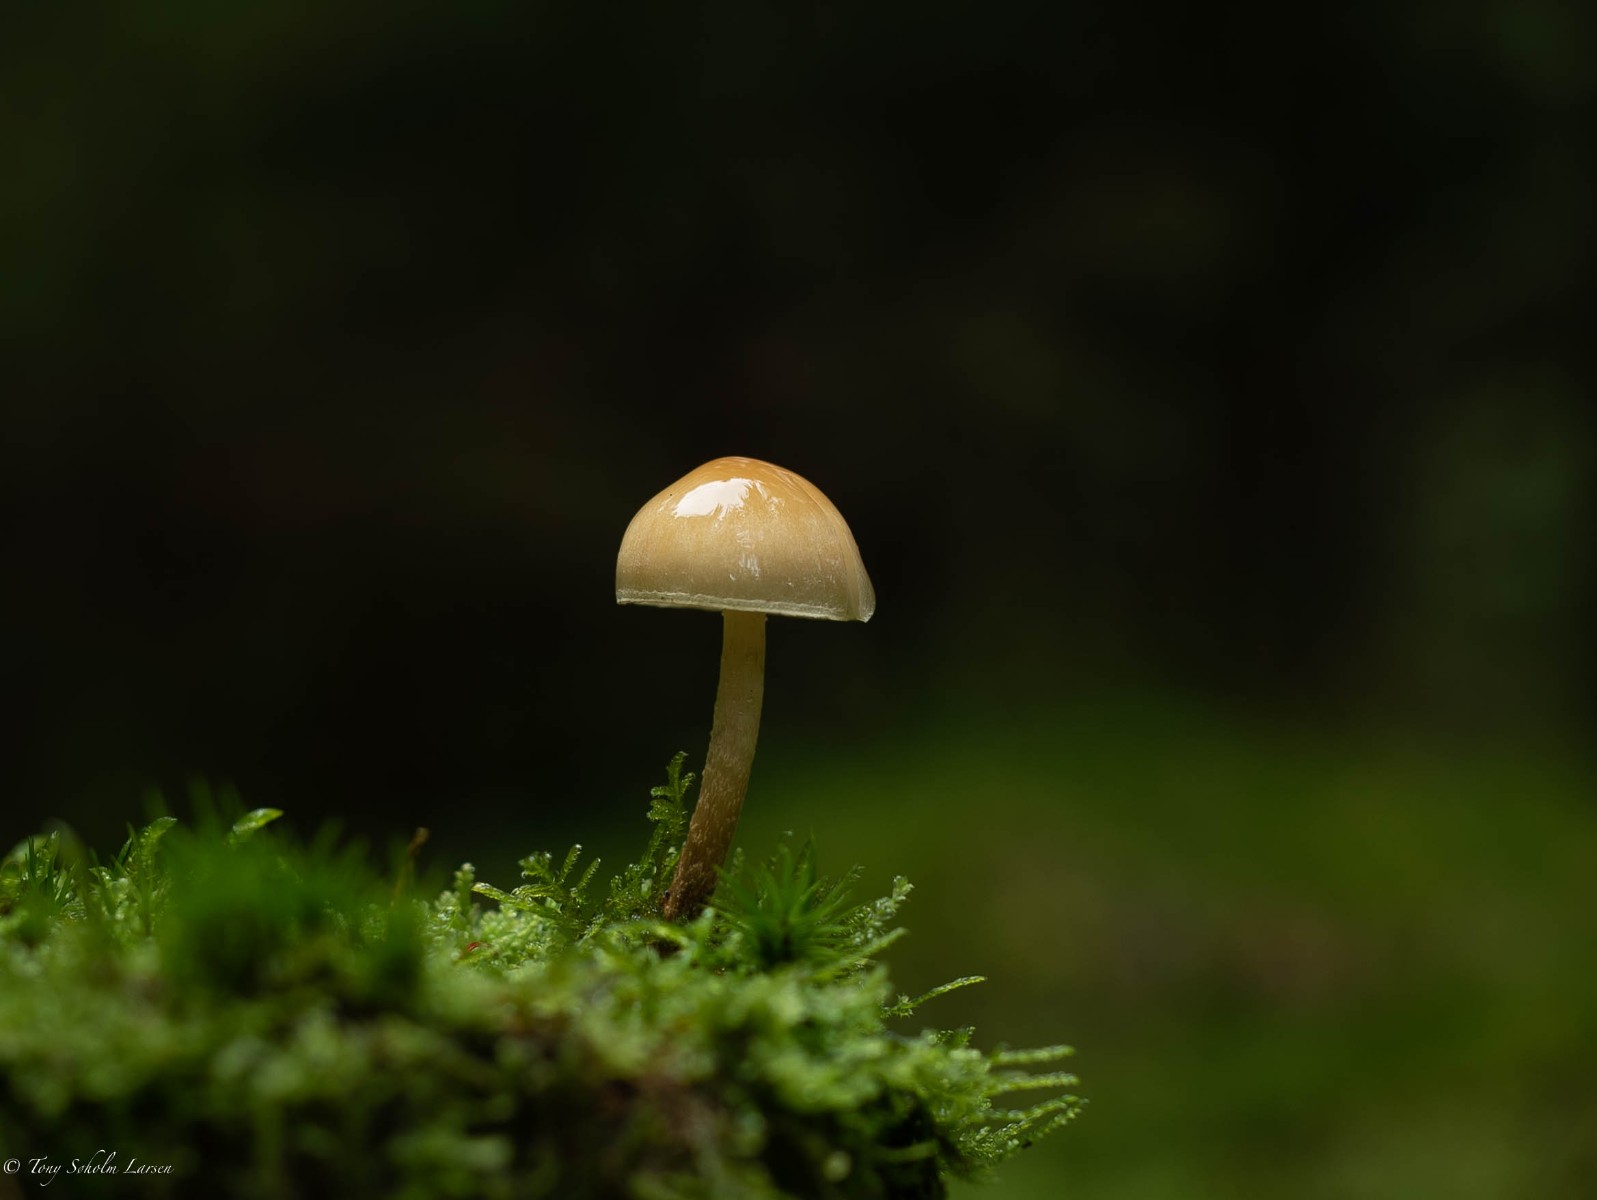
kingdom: Fungi
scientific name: Fungi
